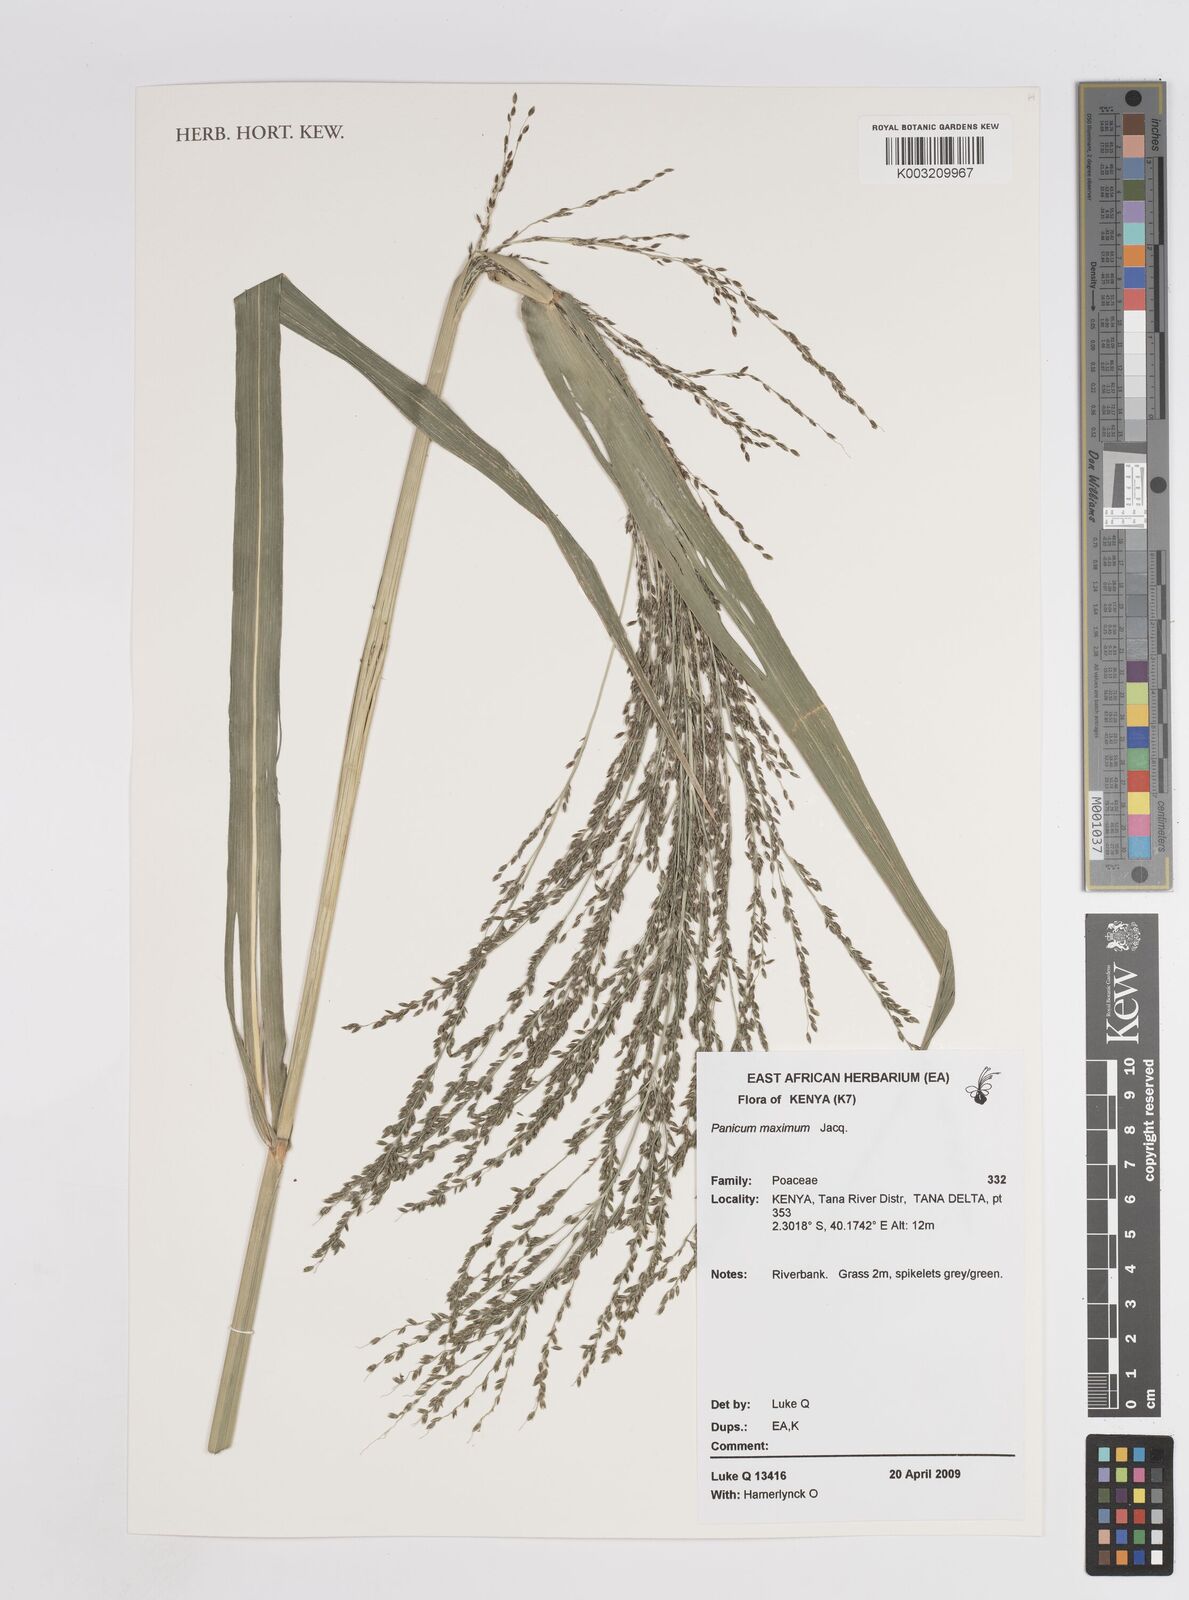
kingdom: Plantae
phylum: Tracheophyta
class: Liliopsida
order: Poales
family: Poaceae
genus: Megathyrsus
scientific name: Megathyrsus maximus
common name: Guineagrass
